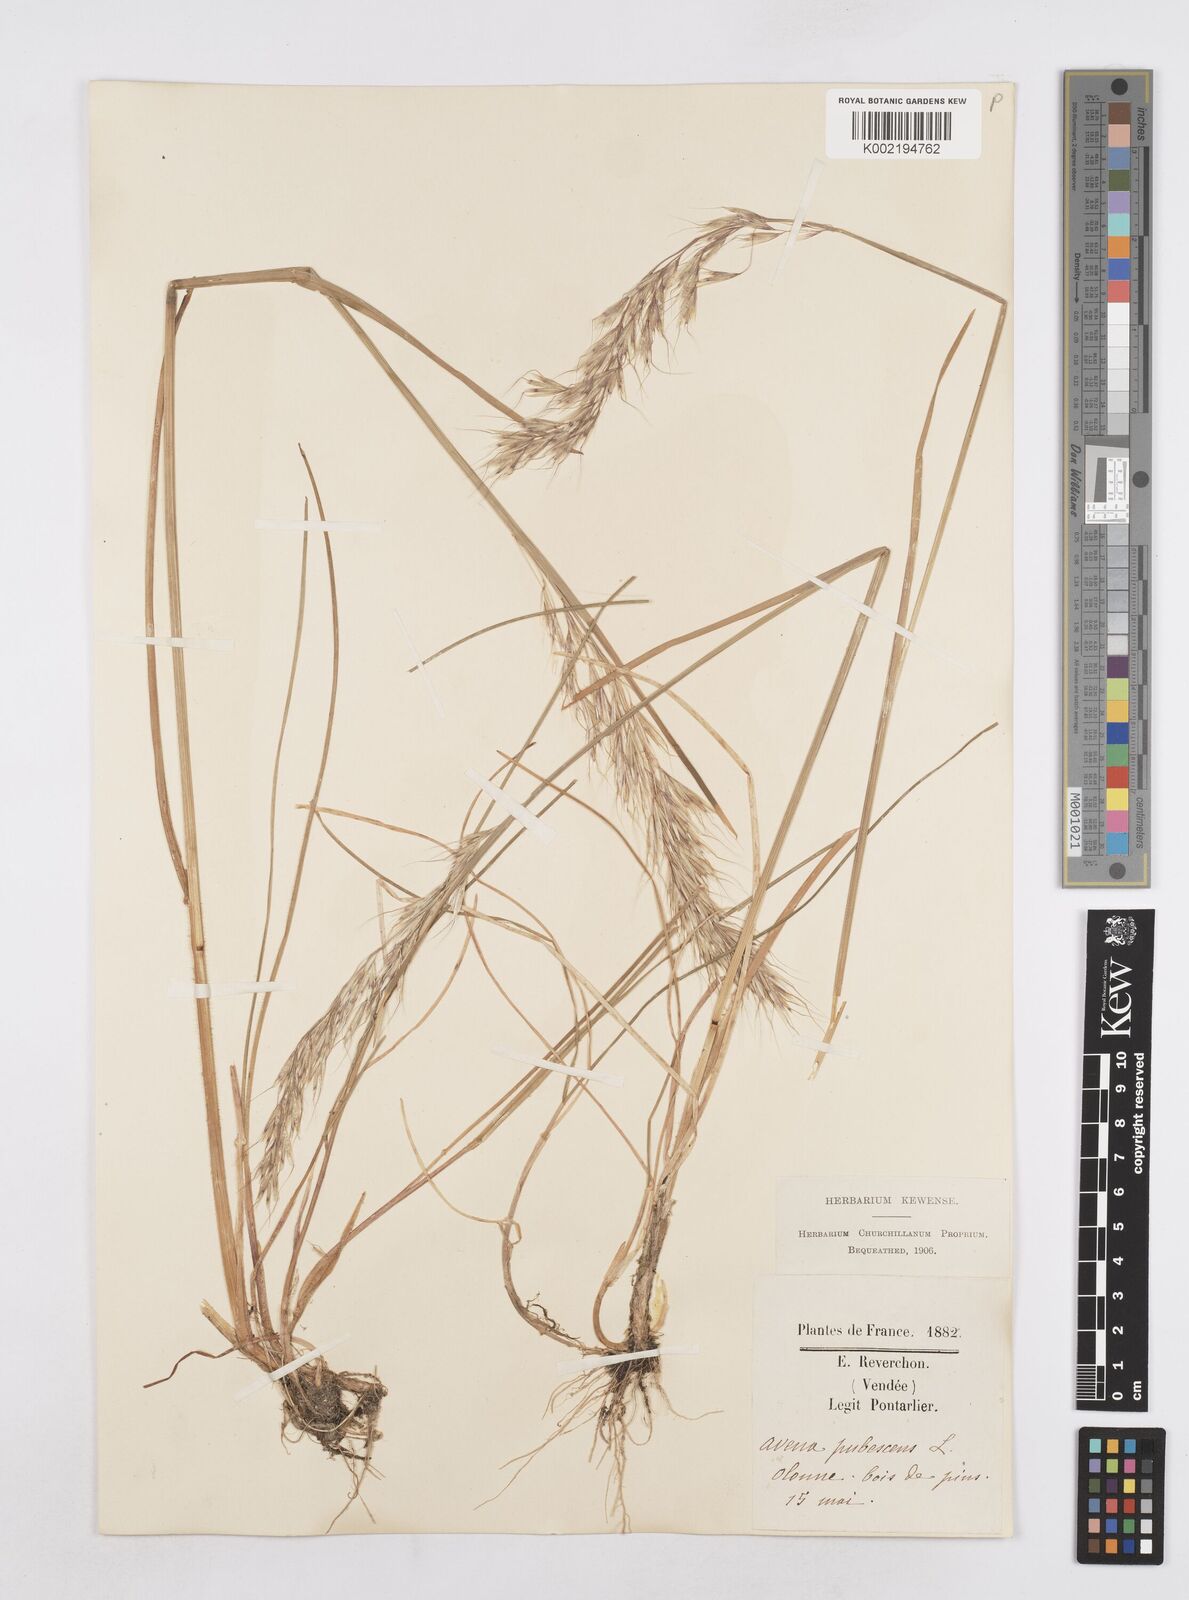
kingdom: Plantae
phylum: Tracheophyta
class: Liliopsida
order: Poales
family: Poaceae
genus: Avenula
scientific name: Avenula pubescens
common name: Downy alpine oatgrass
